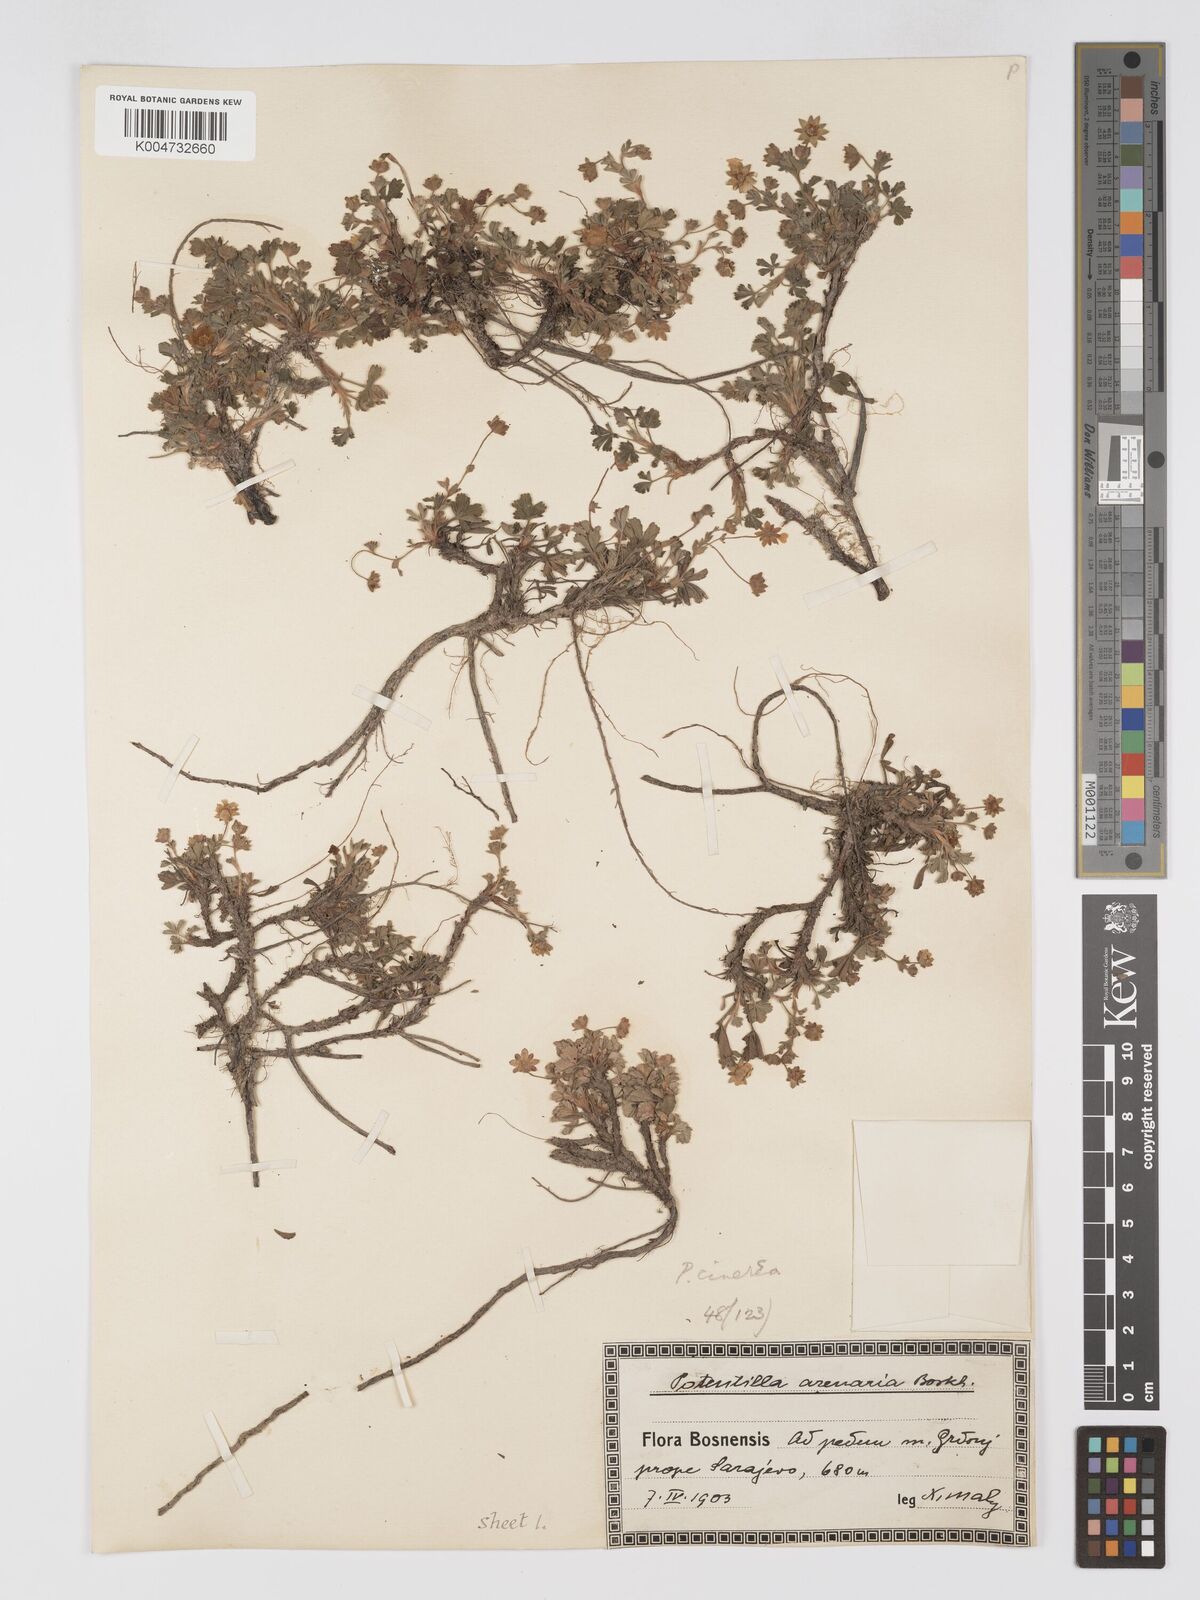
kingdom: Plantae
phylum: Tracheophyta
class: Magnoliopsida
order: Rosales
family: Rosaceae
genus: Potentilla
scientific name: Potentilla cinerea
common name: Ashy cinquefoil
